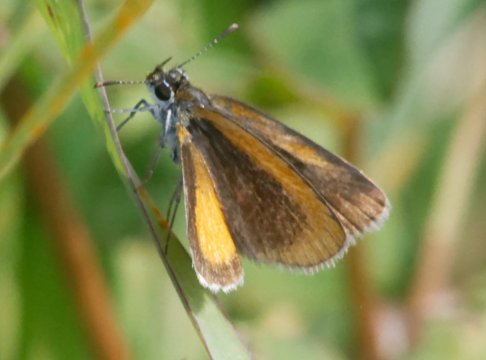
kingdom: Animalia
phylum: Arthropoda
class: Insecta
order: Lepidoptera
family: Hesperiidae
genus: Ancyloxypha
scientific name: Ancyloxypha numitor
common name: Least Skipper
